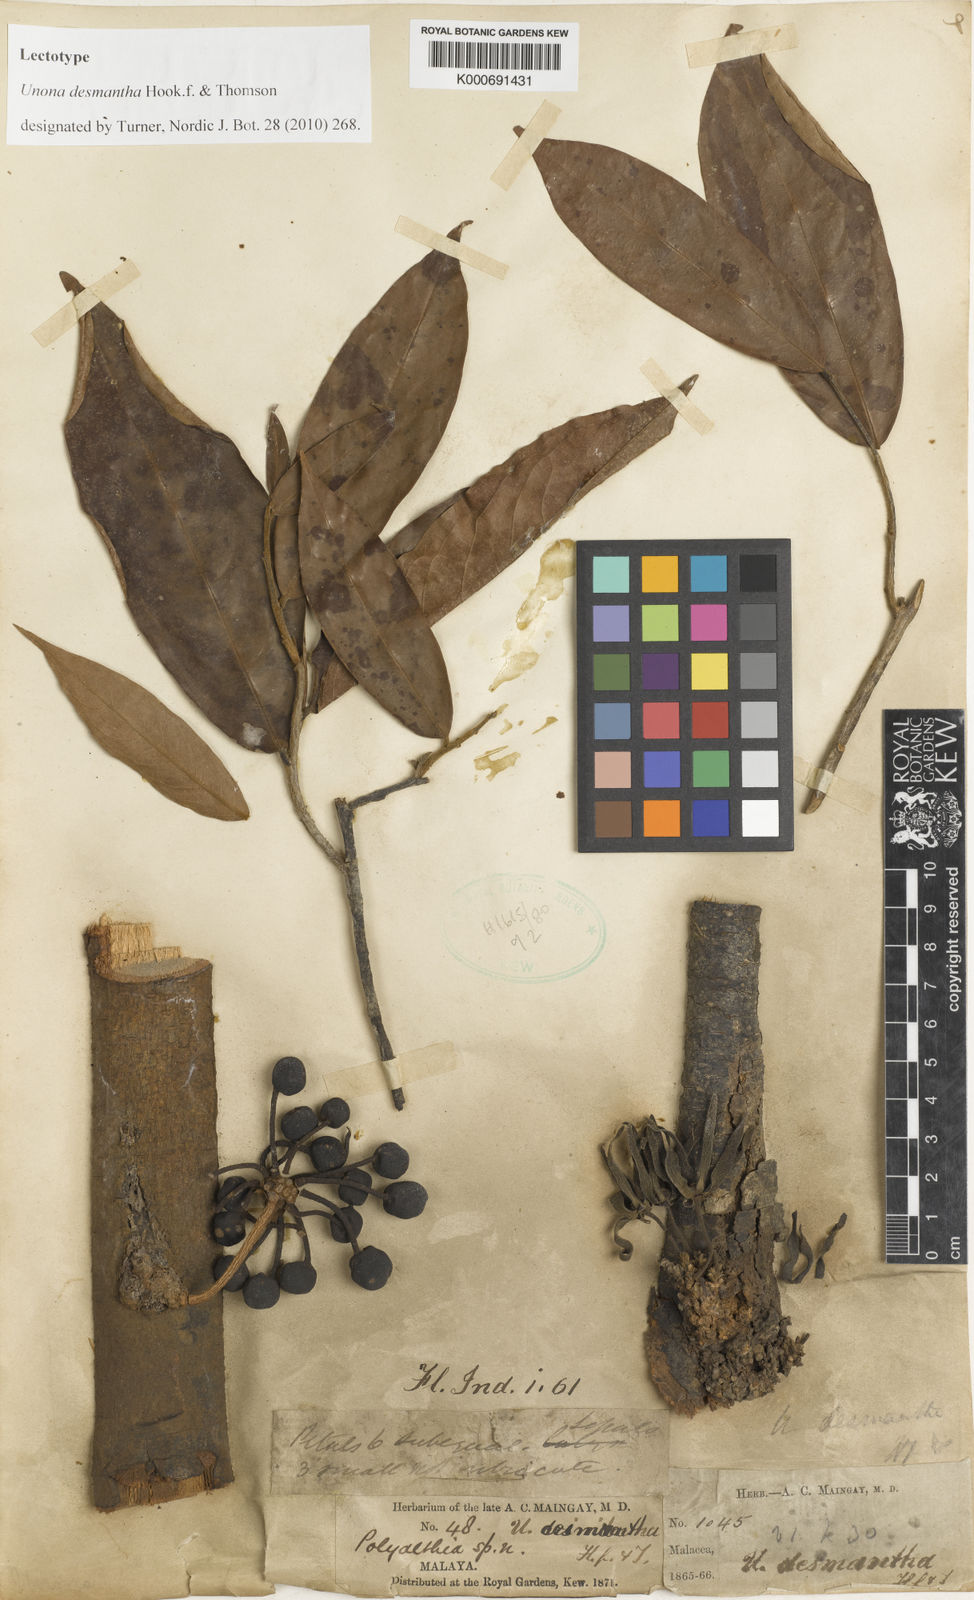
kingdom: Plantae
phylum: Tracheophyta
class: Magnoliopsida
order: Magnoliales
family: Annonaceae
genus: Polyalthia
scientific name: Polyalthia cauliflora
